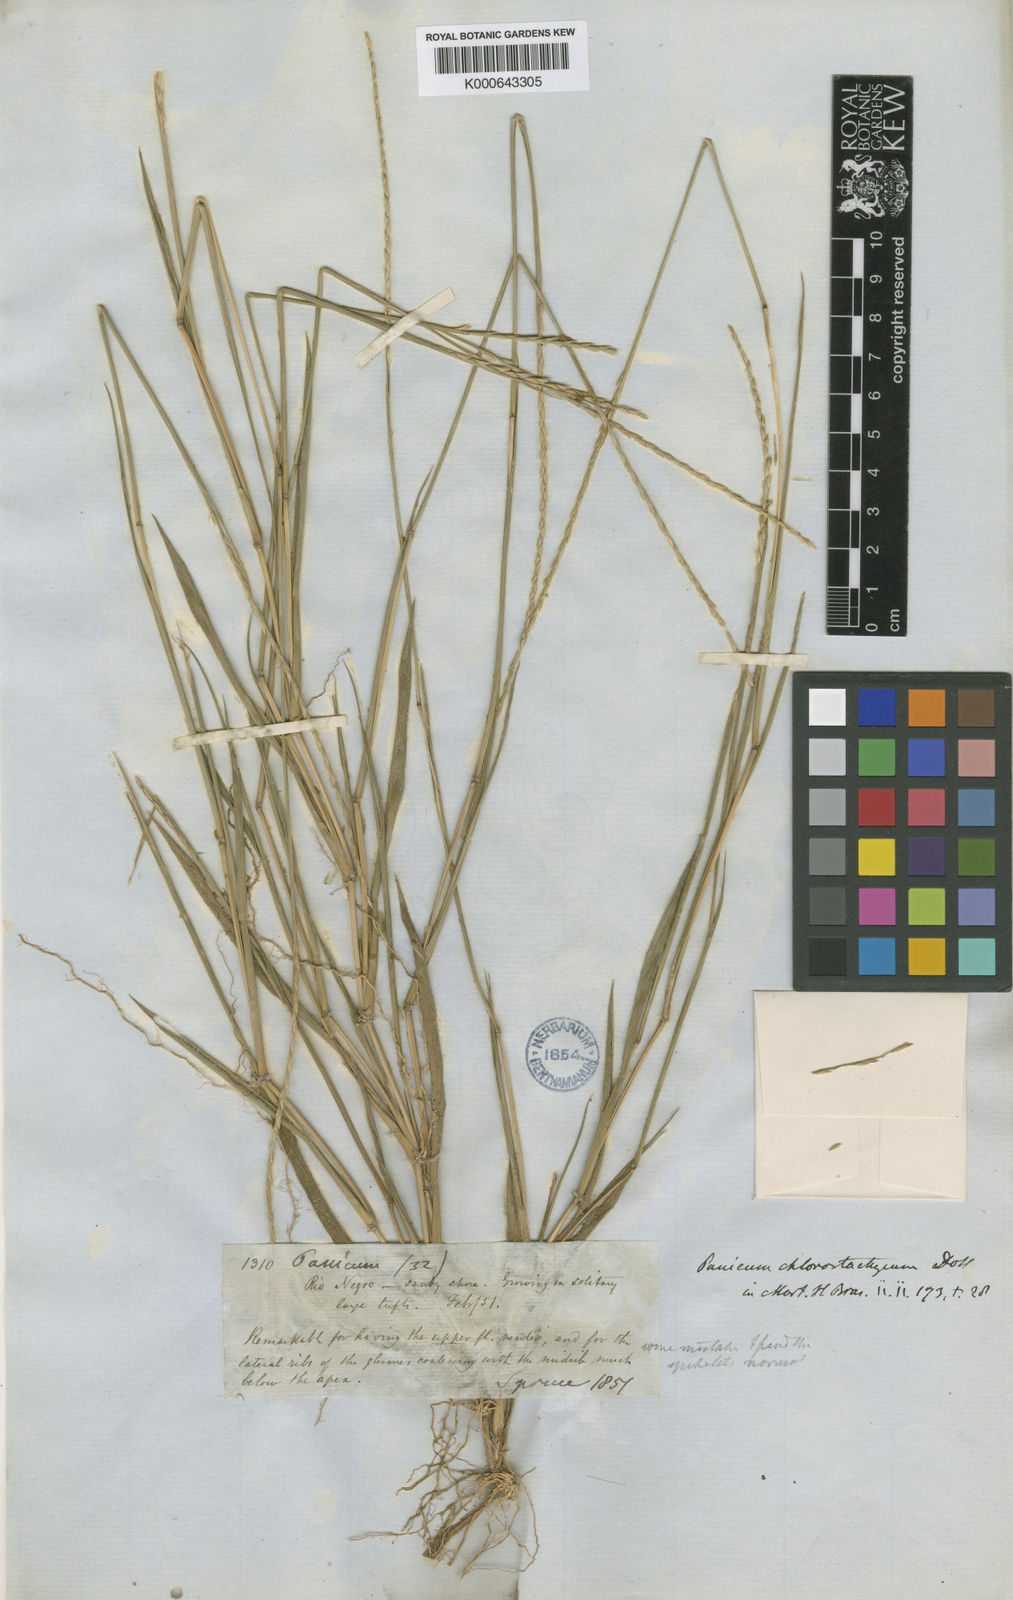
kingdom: Plantae
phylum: Tracheophyta
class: Liliopsida
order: Poales
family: Poaceae
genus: Mesosetum
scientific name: Mesosetum
